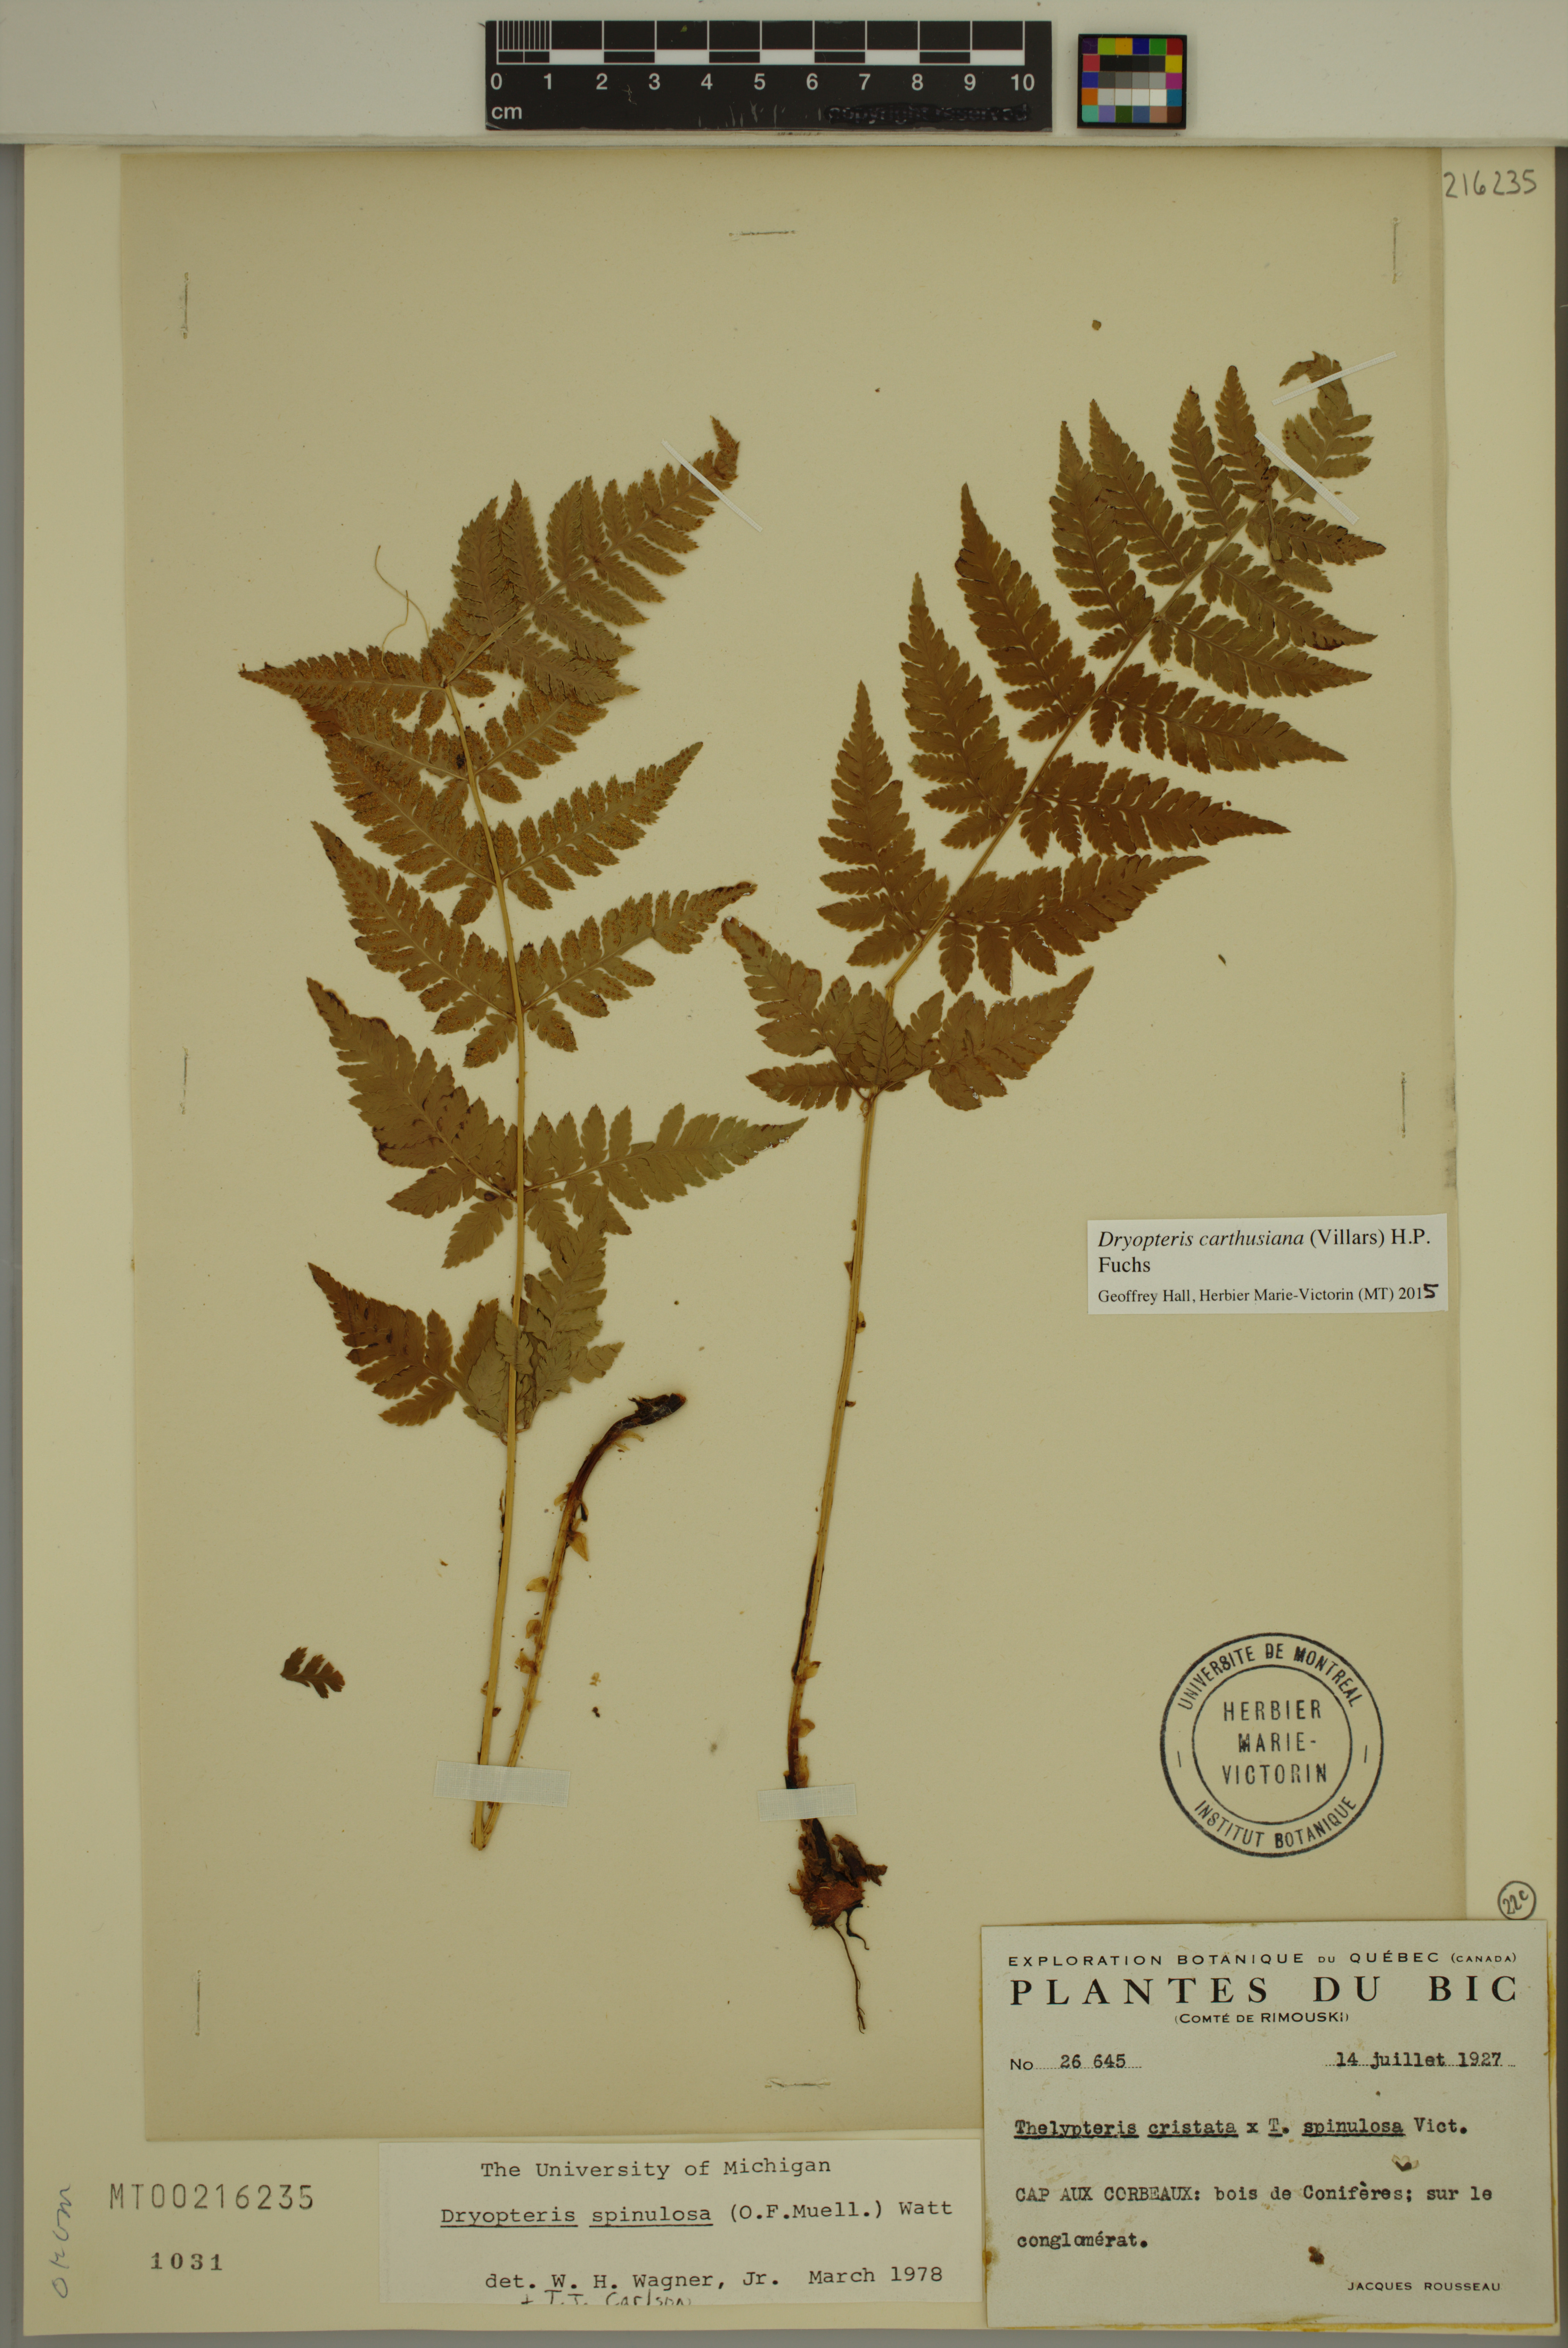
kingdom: Plantae
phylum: Tracheophyta
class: Polypodiopsida
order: Polypodiales
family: Dryopteridaceae
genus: Dryopteris
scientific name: Dryopteris carthusiana
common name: Narrow buckler-fern
